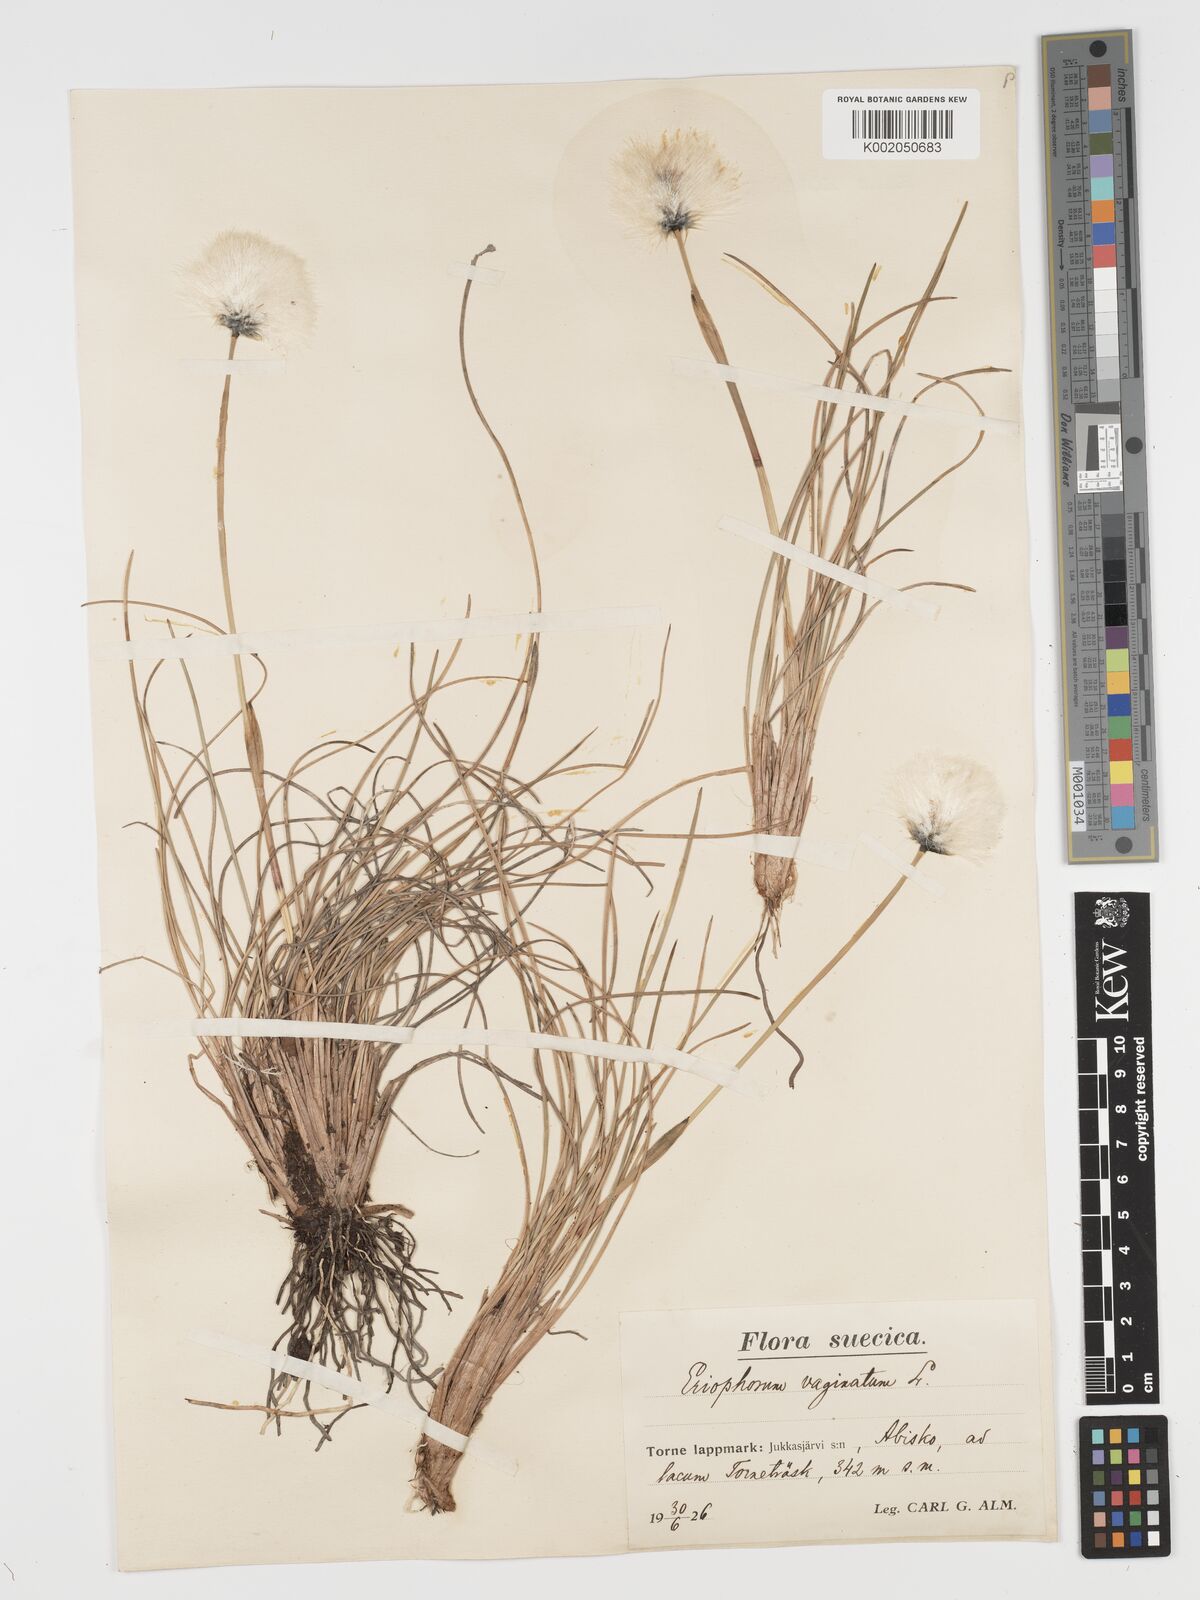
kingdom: Plantae
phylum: Tracheophyta
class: Liliopsida
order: Poales
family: Cyperaceae
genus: Eriophorum
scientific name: Eriophorum vaginatum
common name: Hare's-tail cottongrass
